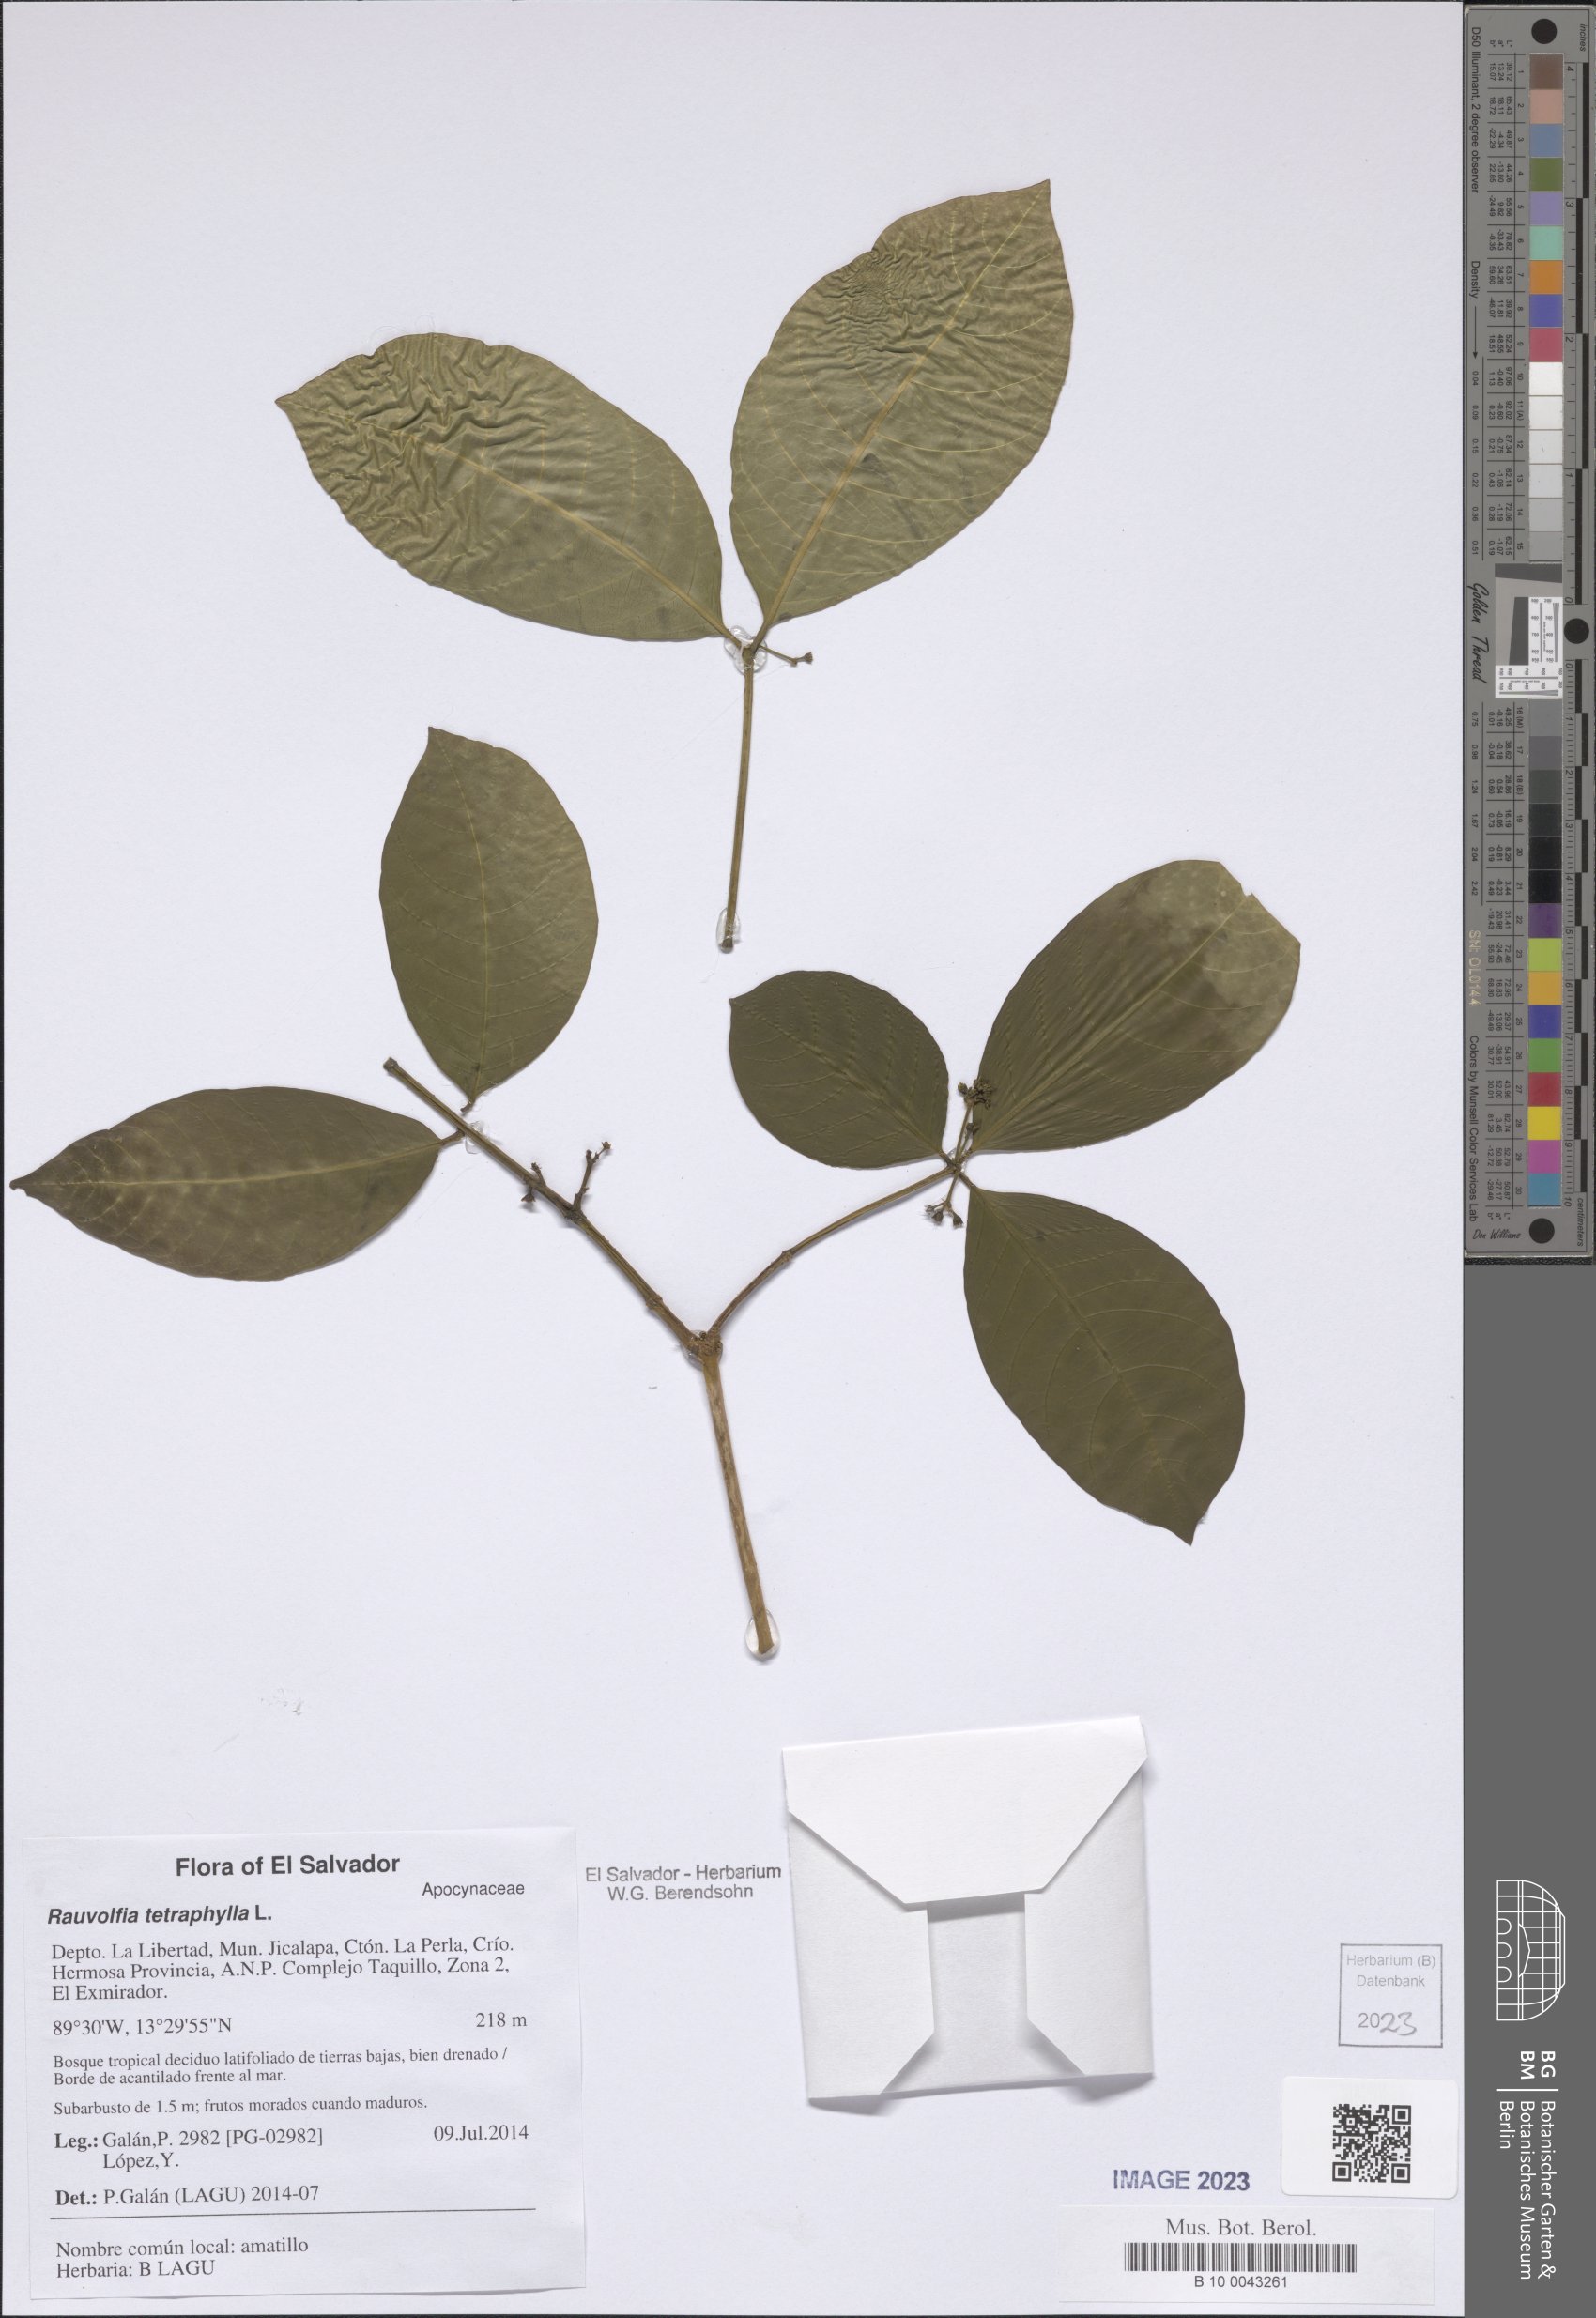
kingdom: Plantae
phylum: Tracheophyta
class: Magnoliopsida
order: Gentianales
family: Apocynaceae
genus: Rauvolfia
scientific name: Rauvolfia tetraphylla
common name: Four-leaf devil-pepper
